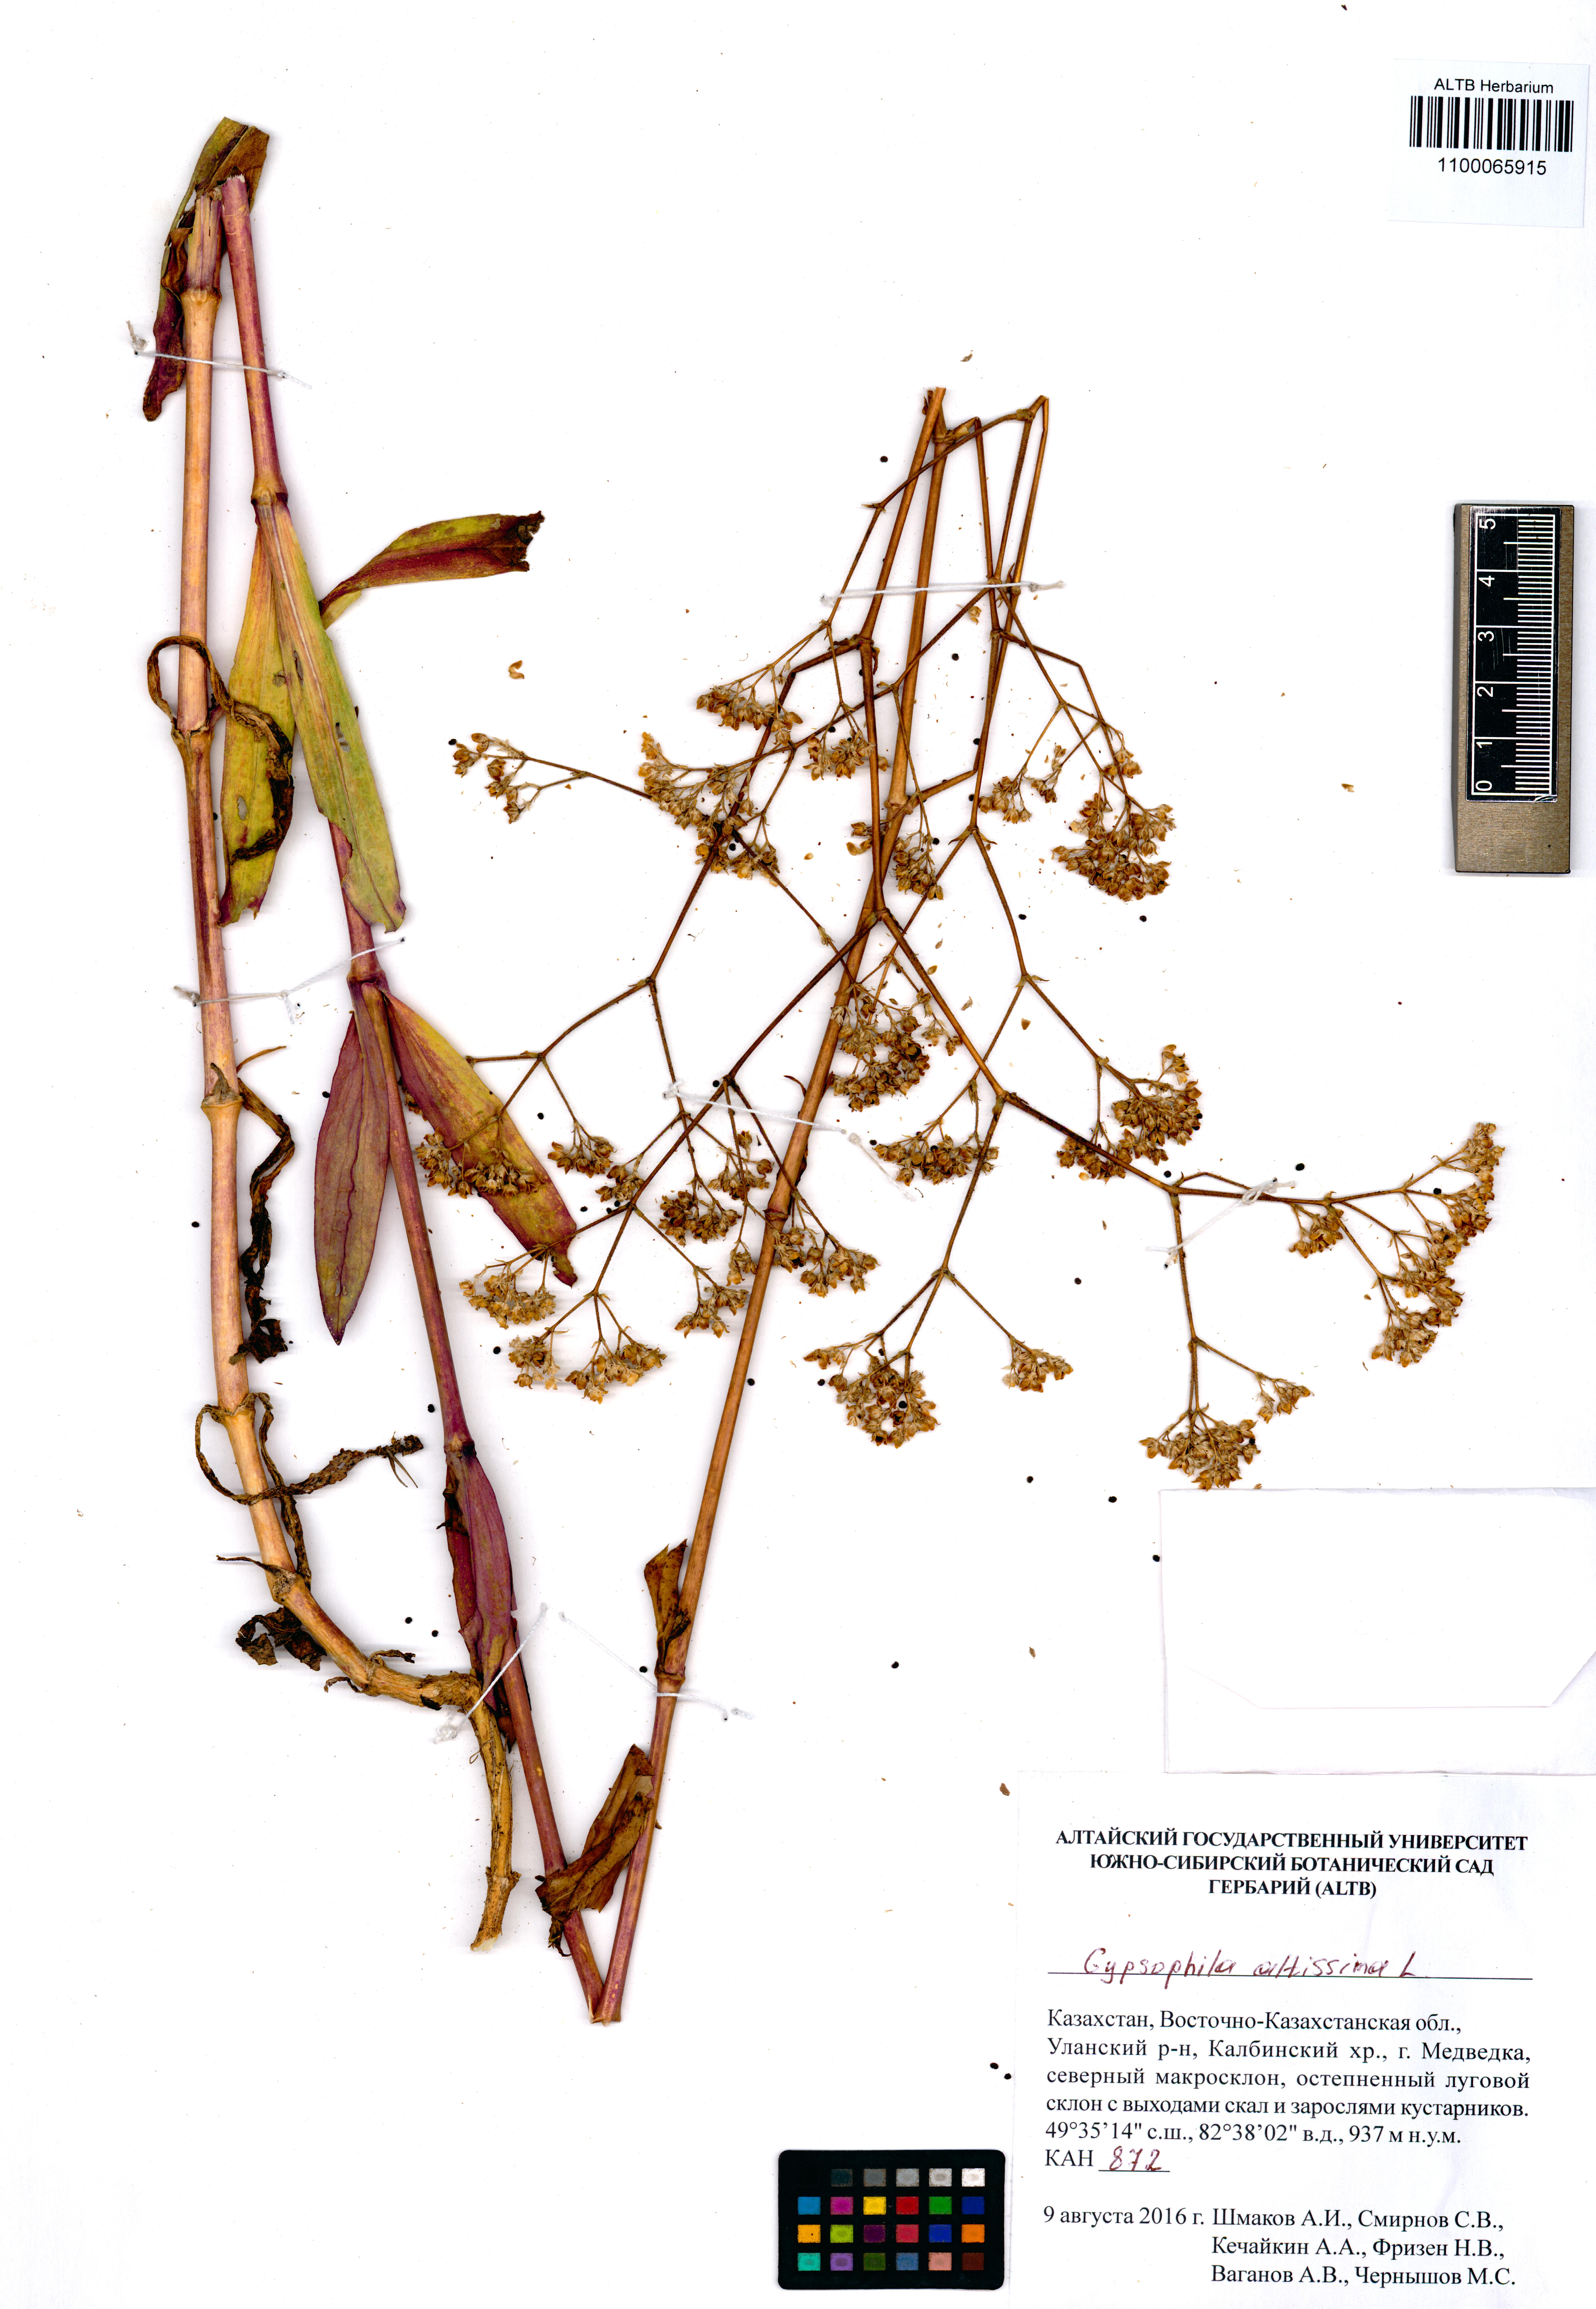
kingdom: Plantae
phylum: Tracheophyta
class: Magnoliopsida
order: Caryophyllales
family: Caryophyllaceae
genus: Gypsophila
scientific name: Gypsophila altissima
